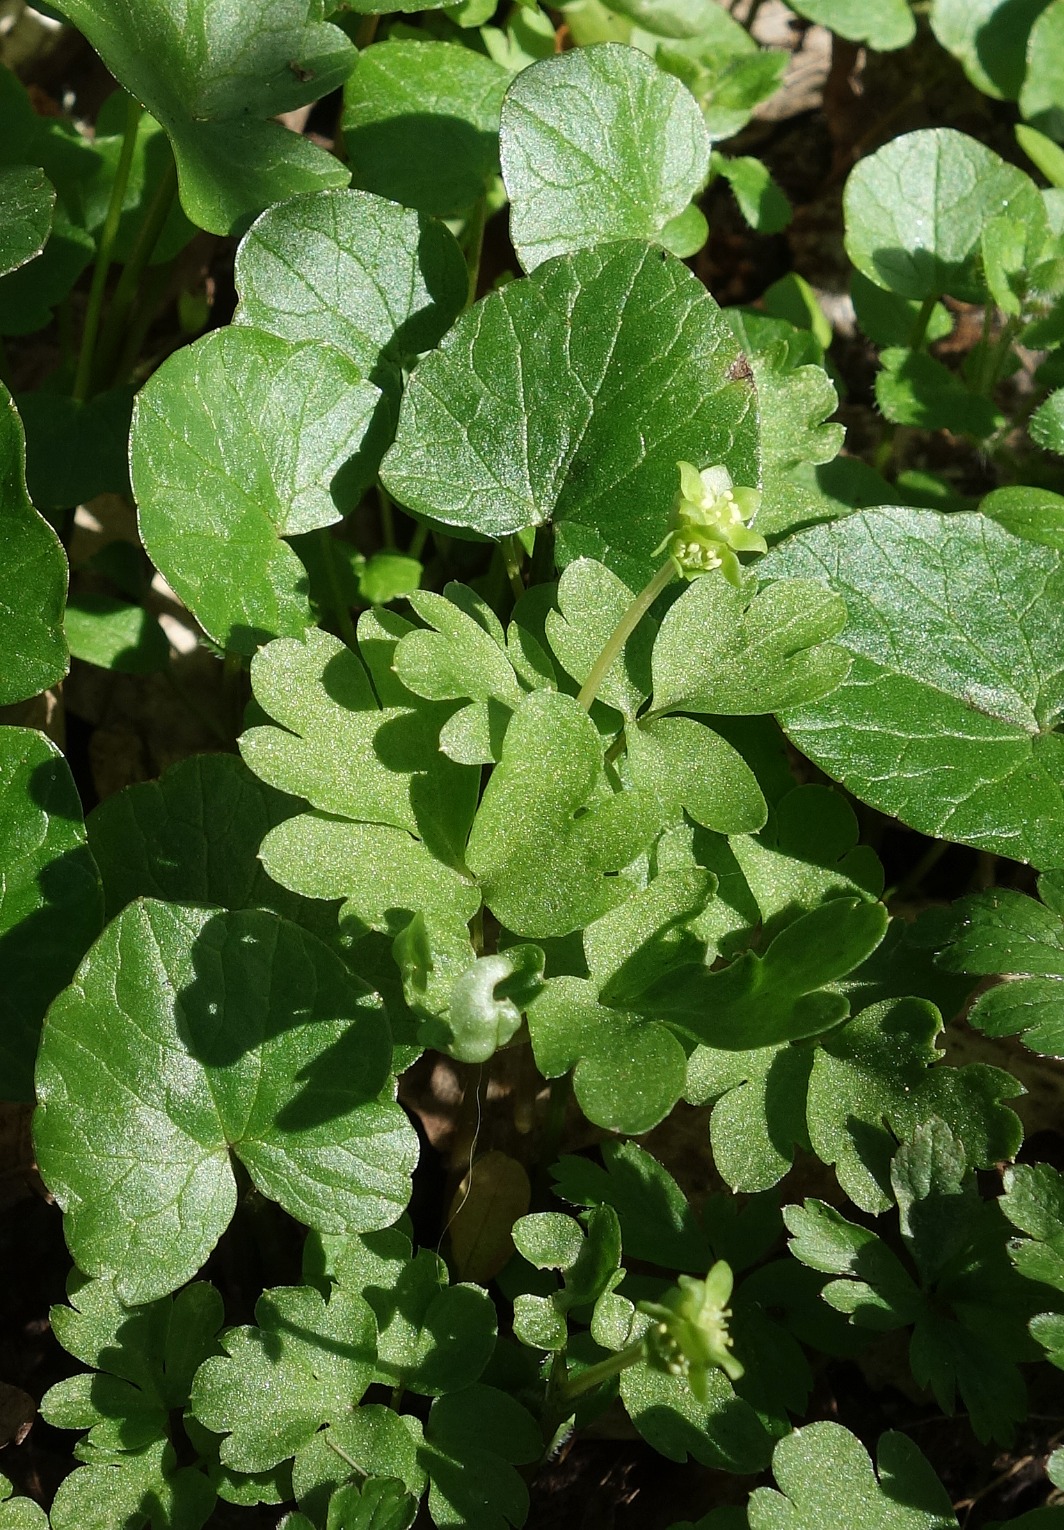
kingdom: Plantae
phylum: Tracheophyta
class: Magnoliopsida
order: Dipsacales
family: Viburnaceae
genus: Adoxa
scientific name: Adoxa moschatellina
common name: Desmerurt
